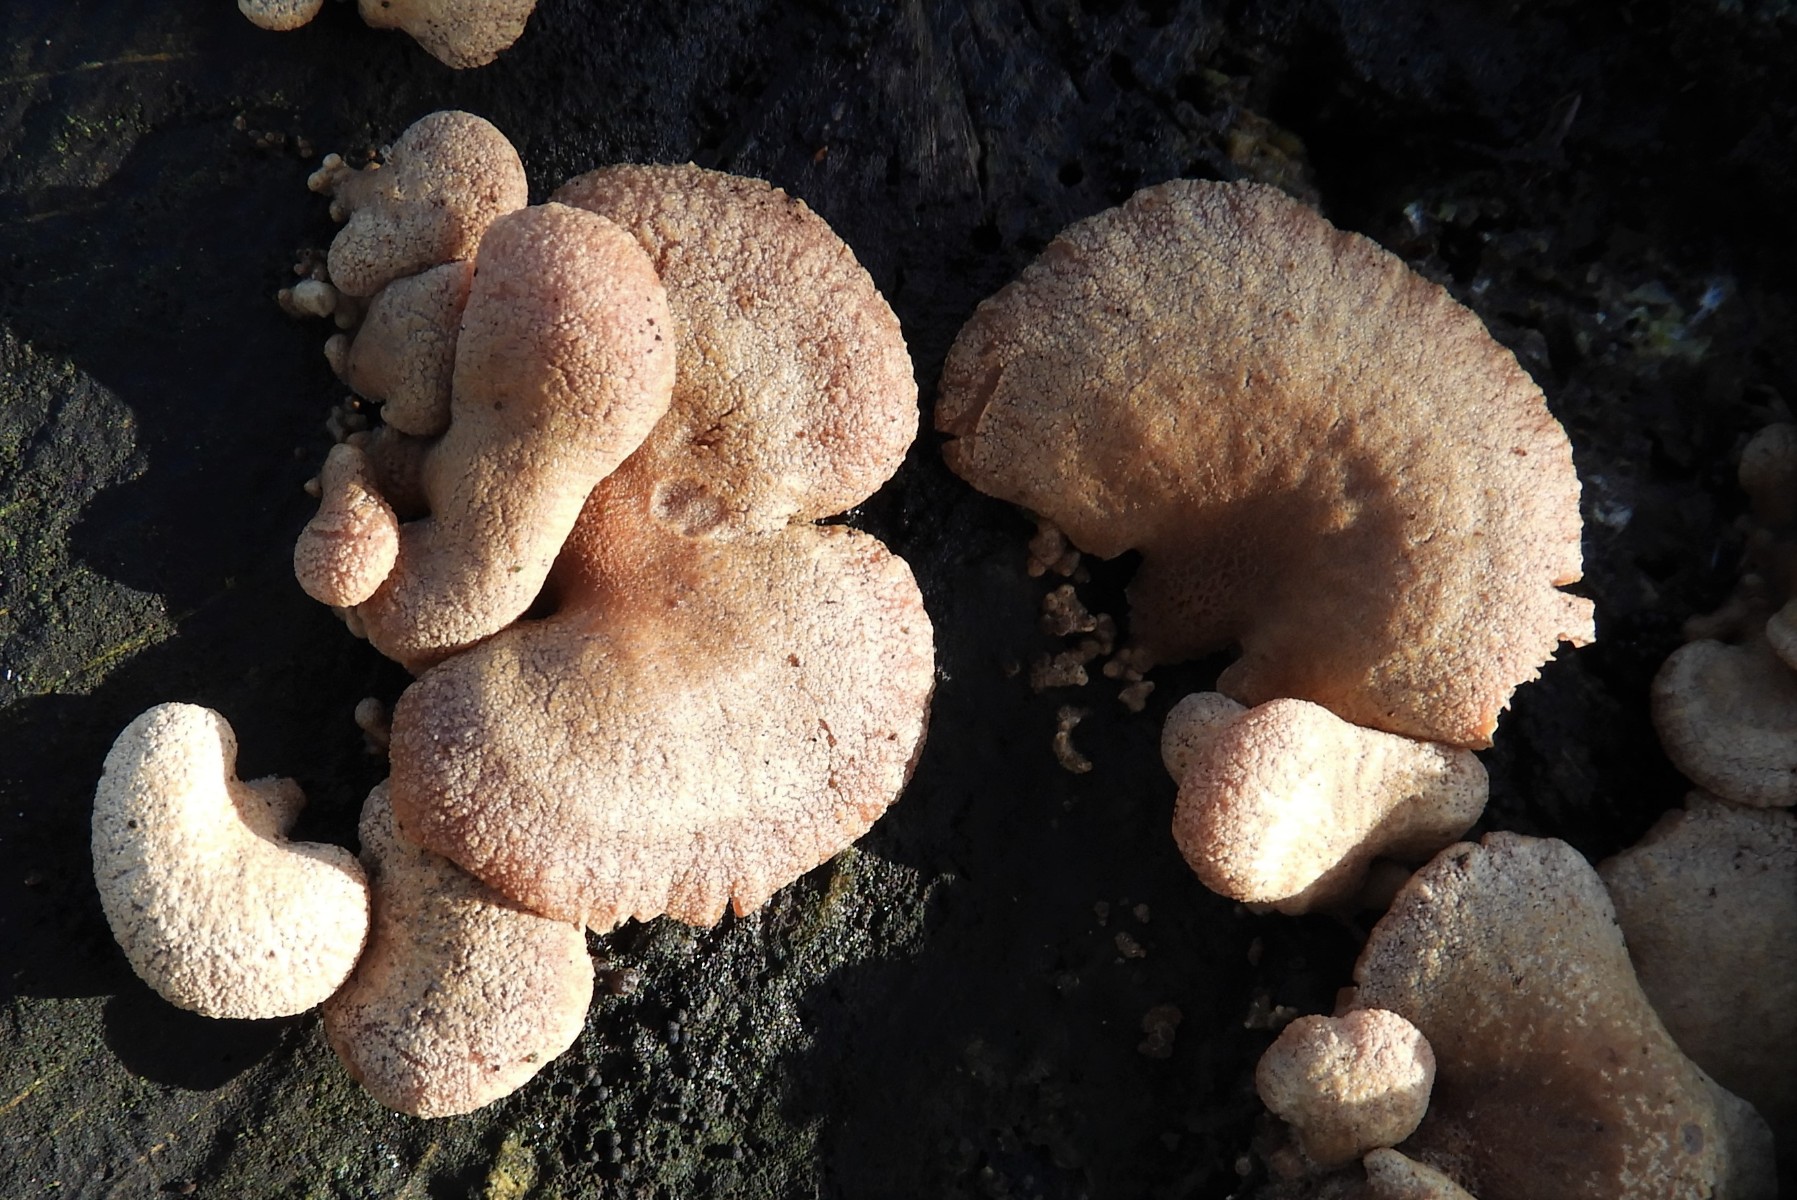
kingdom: Fungi
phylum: Basidiomycota
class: Agaricomycetes
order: Agaricales
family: Mycenaceae
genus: Panellus
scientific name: Panellus stipticus
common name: kliddet epaulethat
